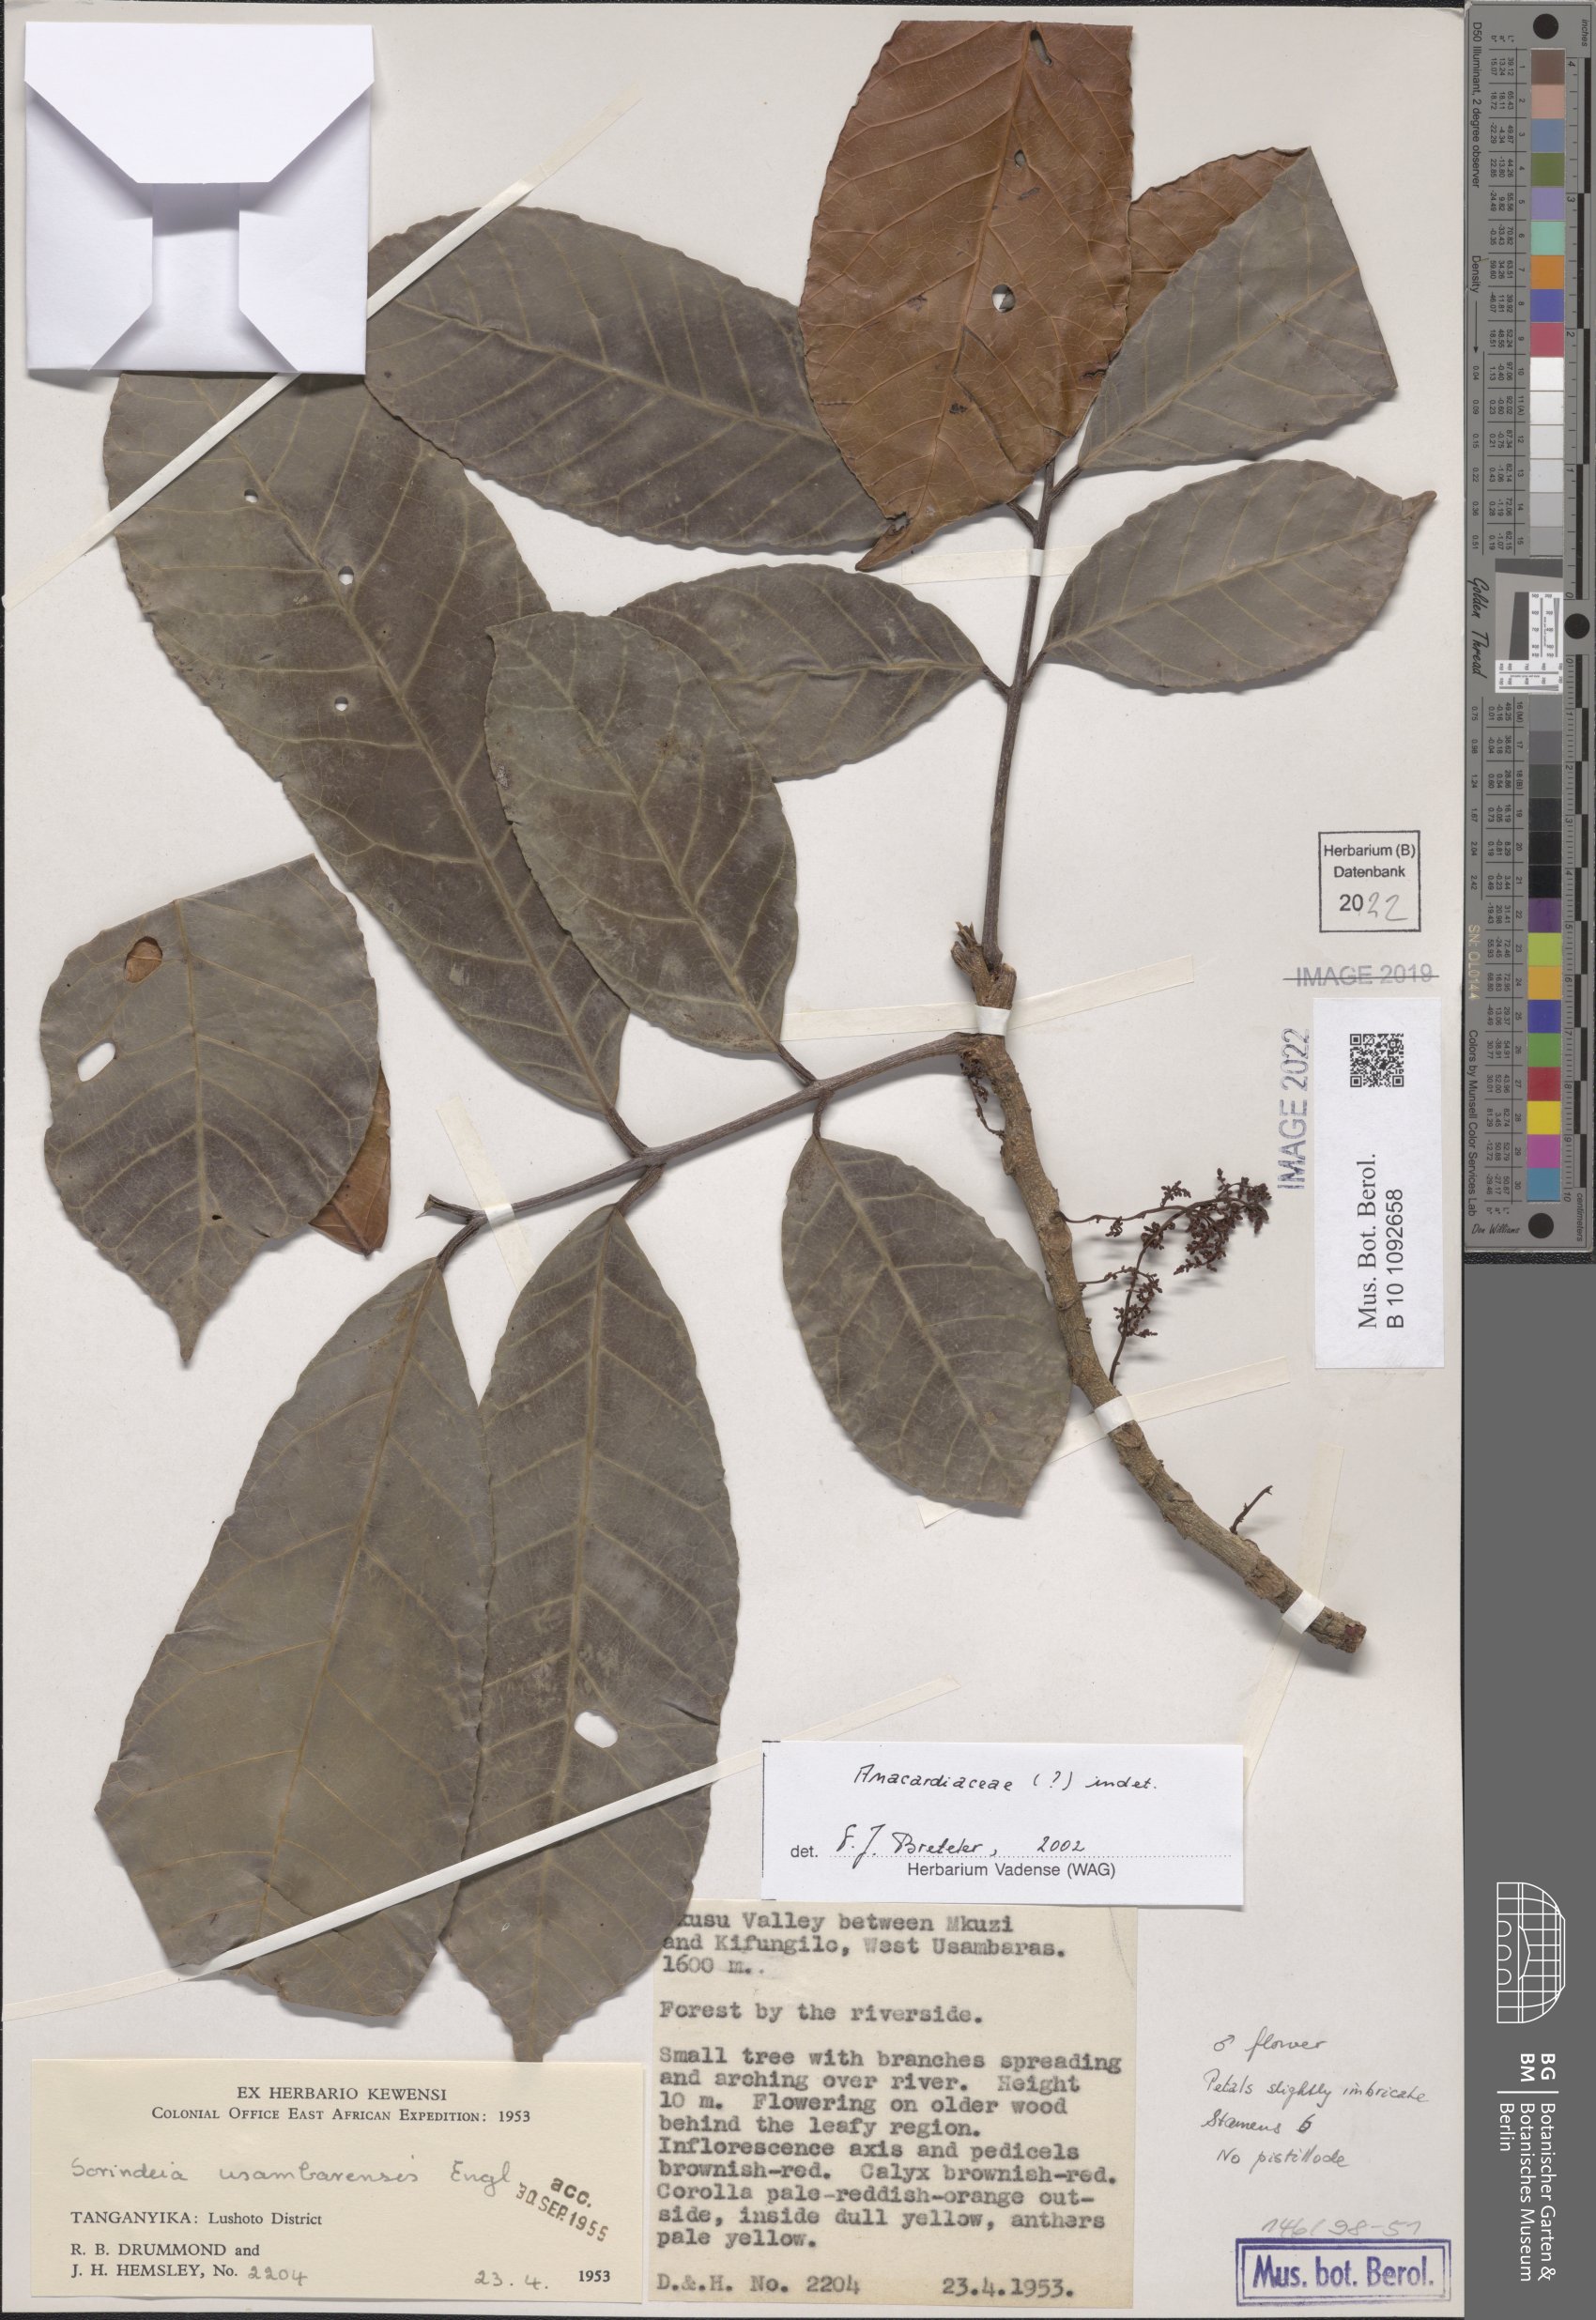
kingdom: Plantae
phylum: Tracheophyta
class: Magnoliopsida
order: Sapindales
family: Anacardiaceae
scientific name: Anacardiaceae
